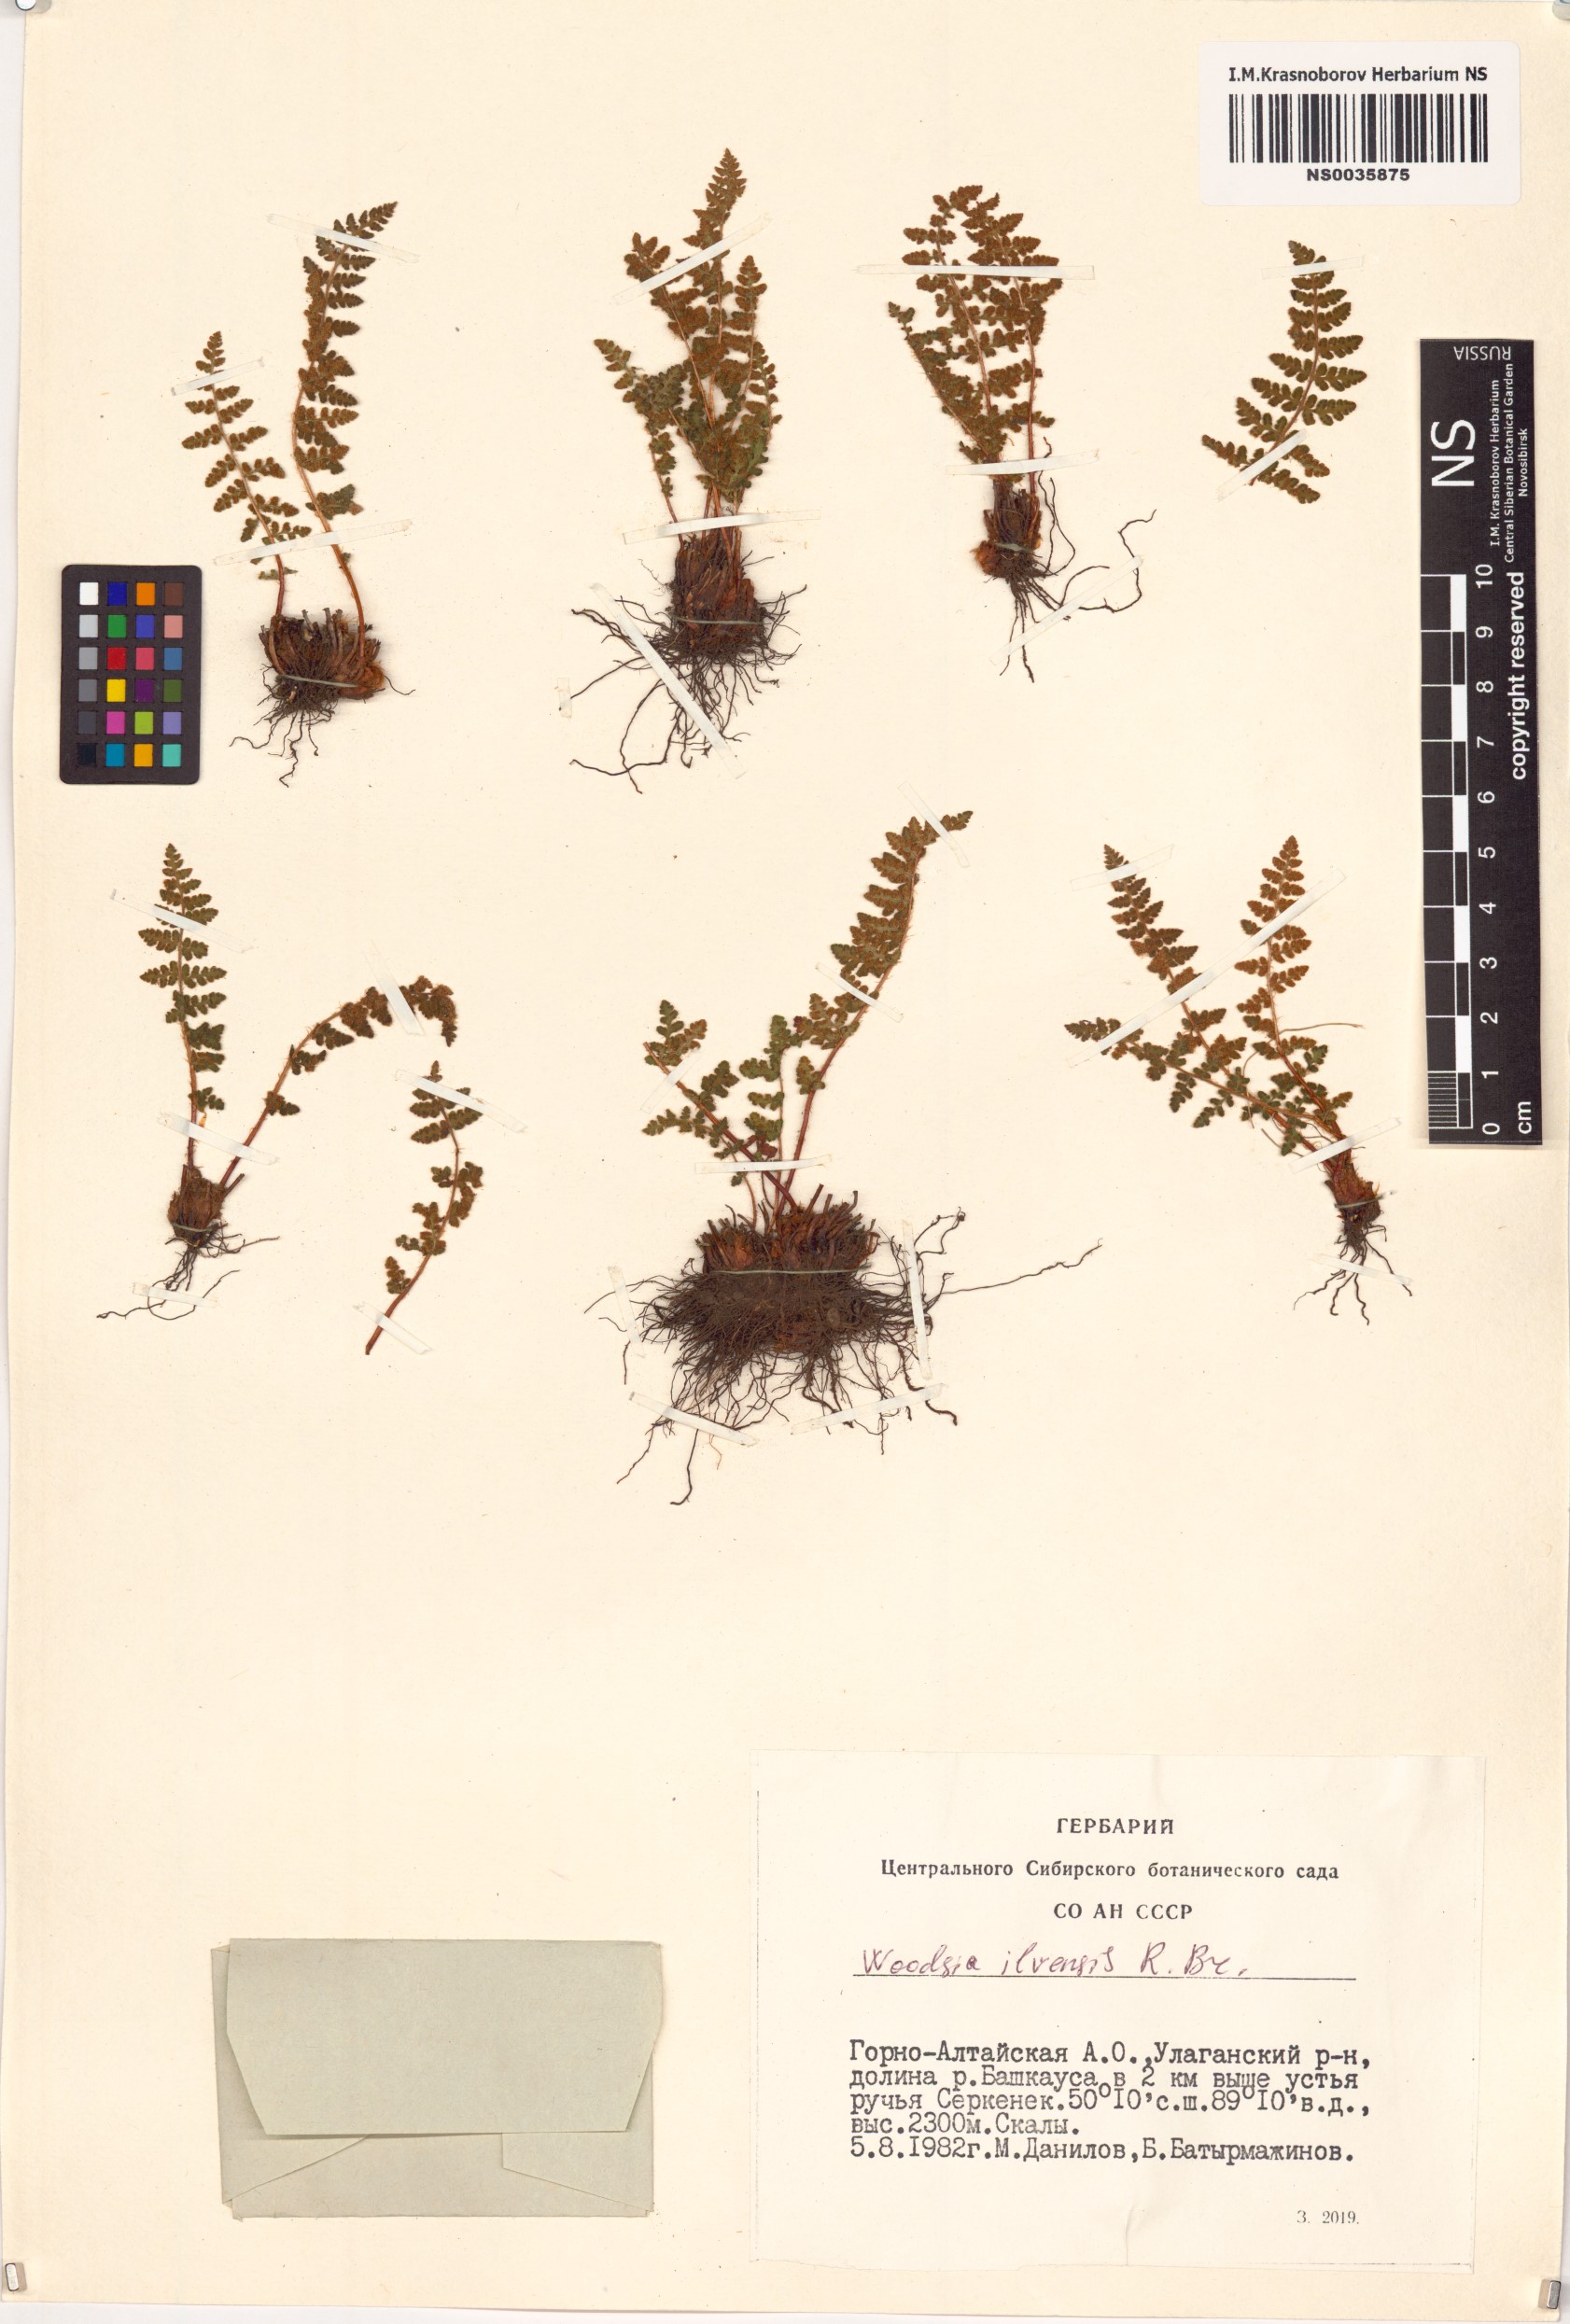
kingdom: Plantae
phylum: Tracheophyta
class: Polypodiopsida
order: Polypodiales
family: Woodsiaceae
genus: Woodsia
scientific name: Woodsia ilvensis
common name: Fragrant woodsia
